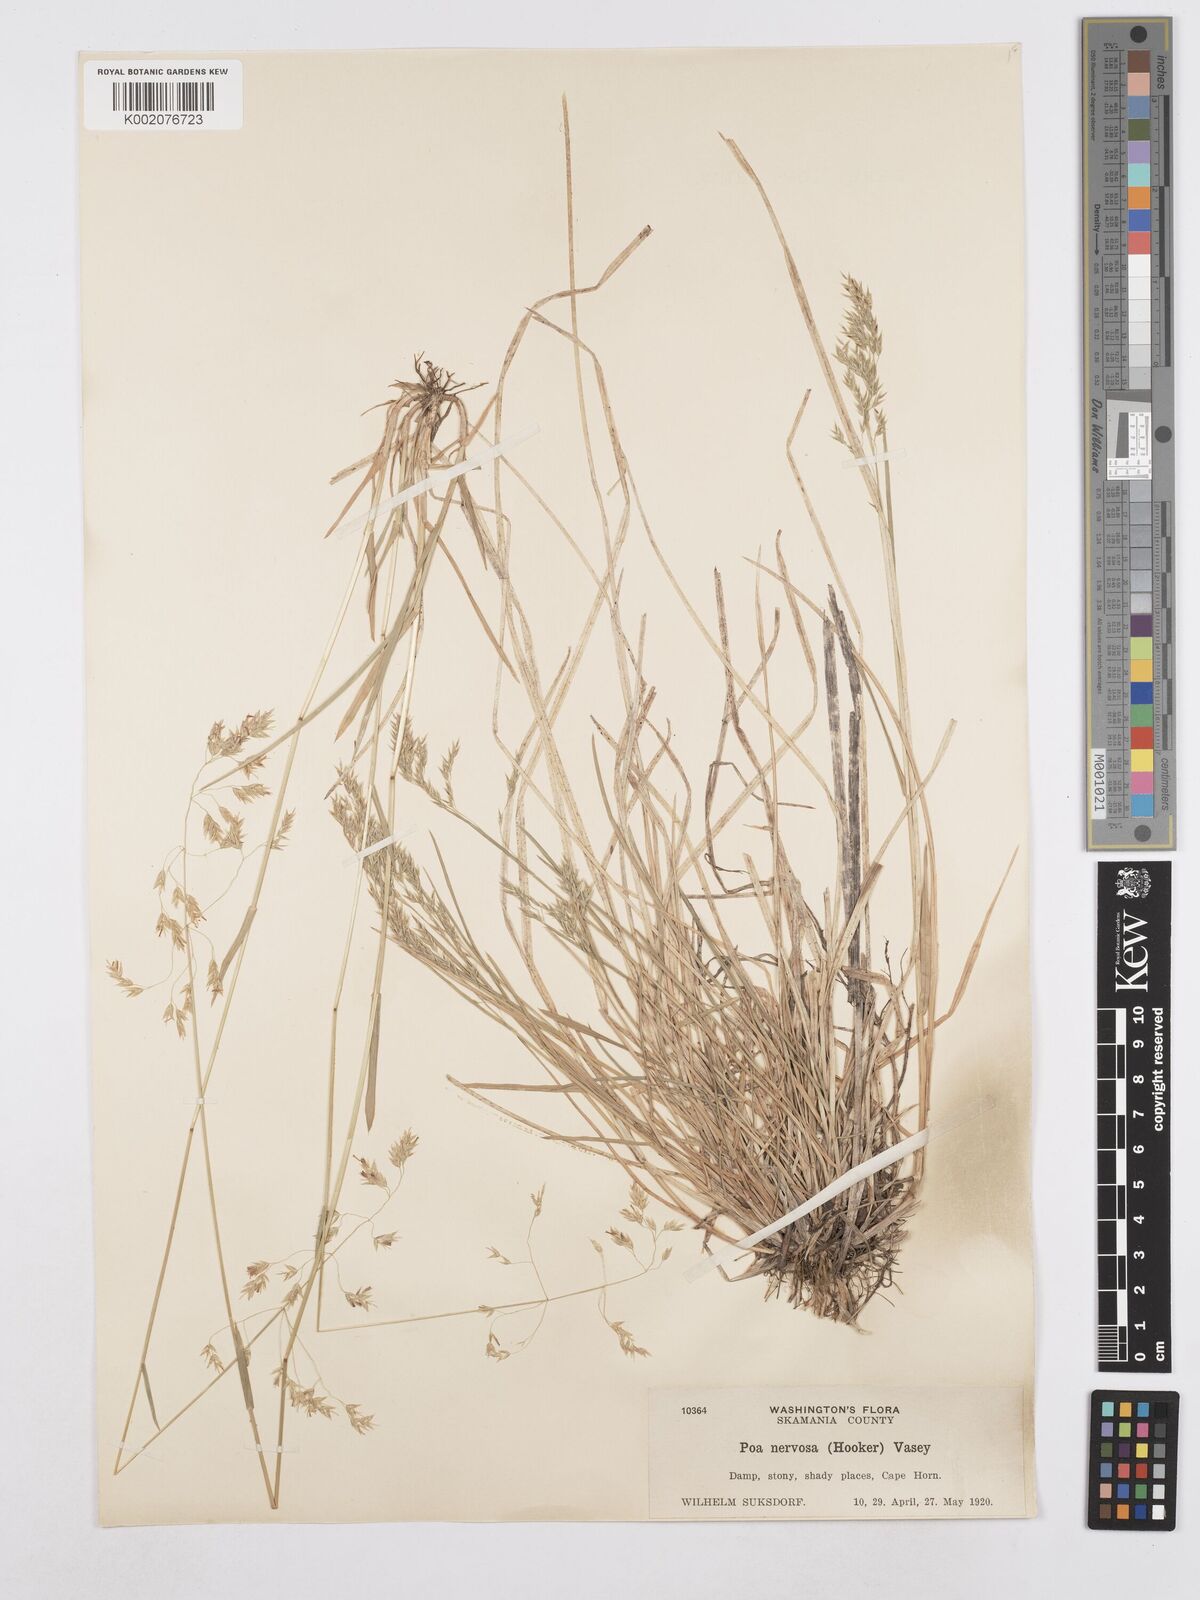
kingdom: Plantae
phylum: Tracheophyta
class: Liliopsida
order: Poales
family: Poaceae
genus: Poa
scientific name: Poa nervosa
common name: Hooker's bluegrass
